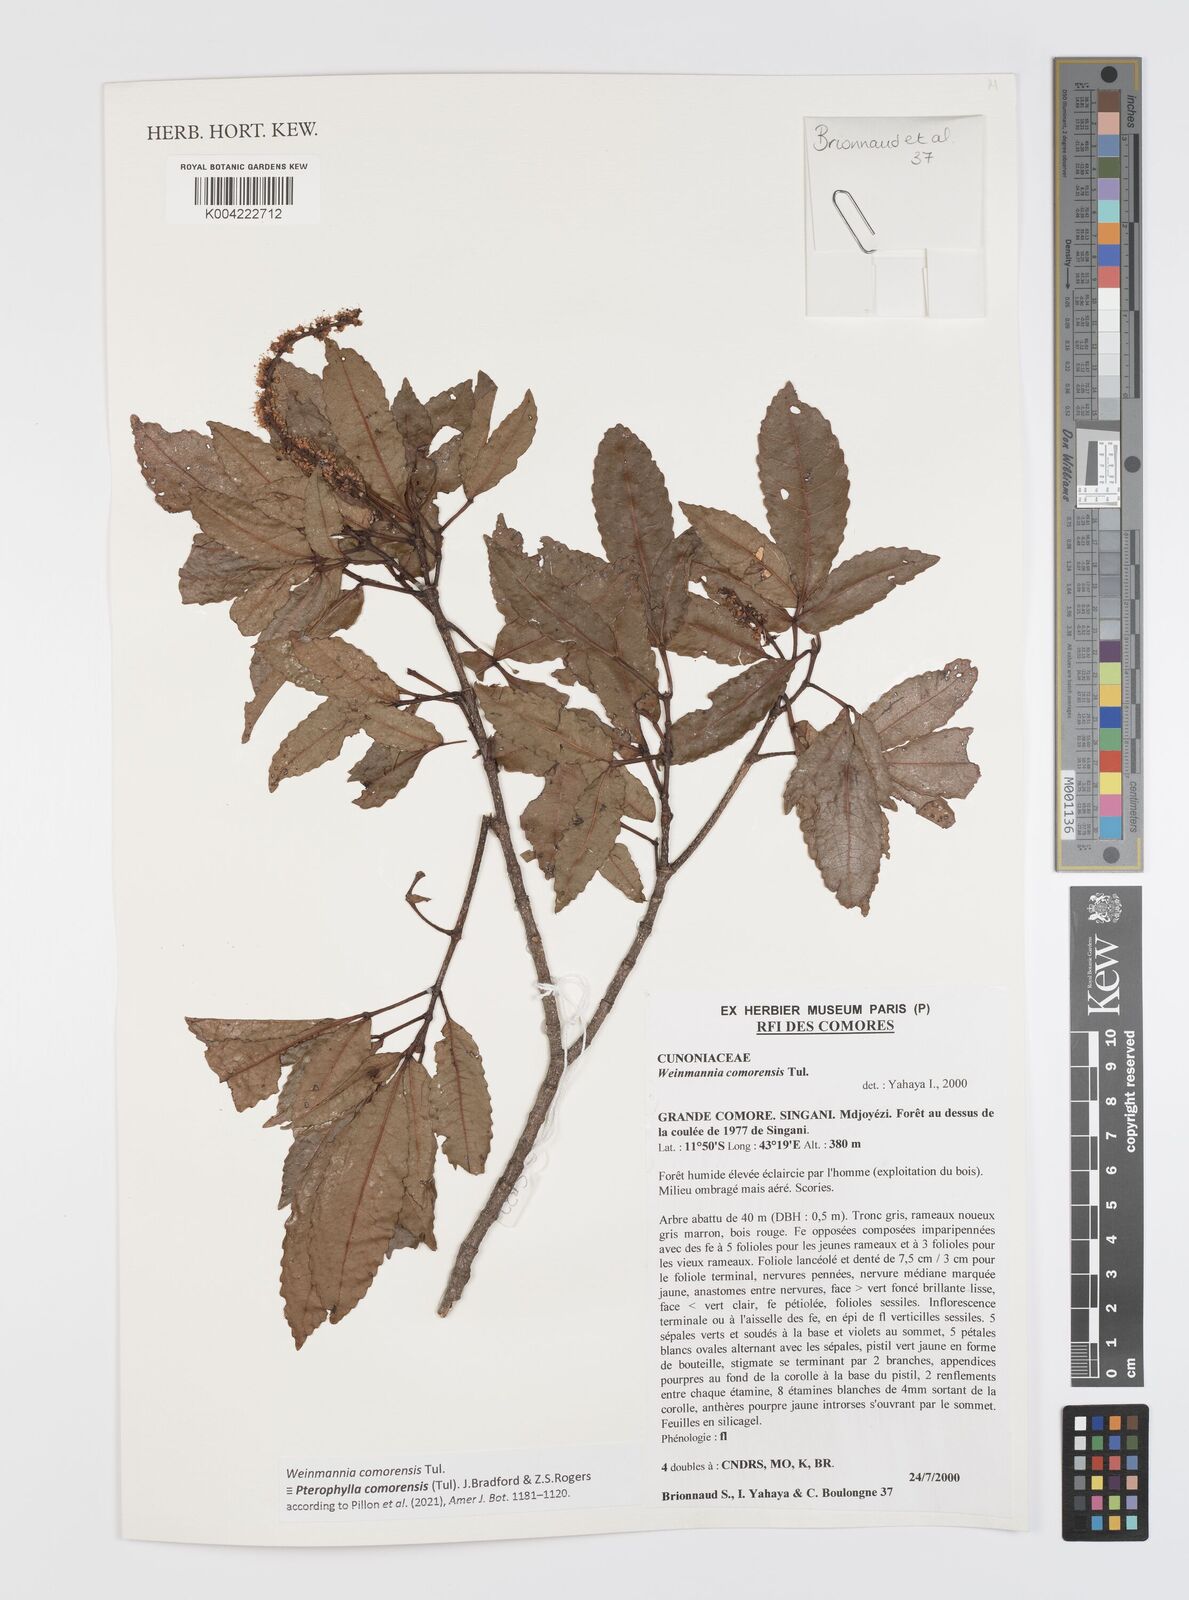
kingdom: Plantae
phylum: Tracheophyta
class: Magnoliopsida
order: Oxalidales
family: Cunoniaceae
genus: Pterophylla
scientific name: Pterophylla
